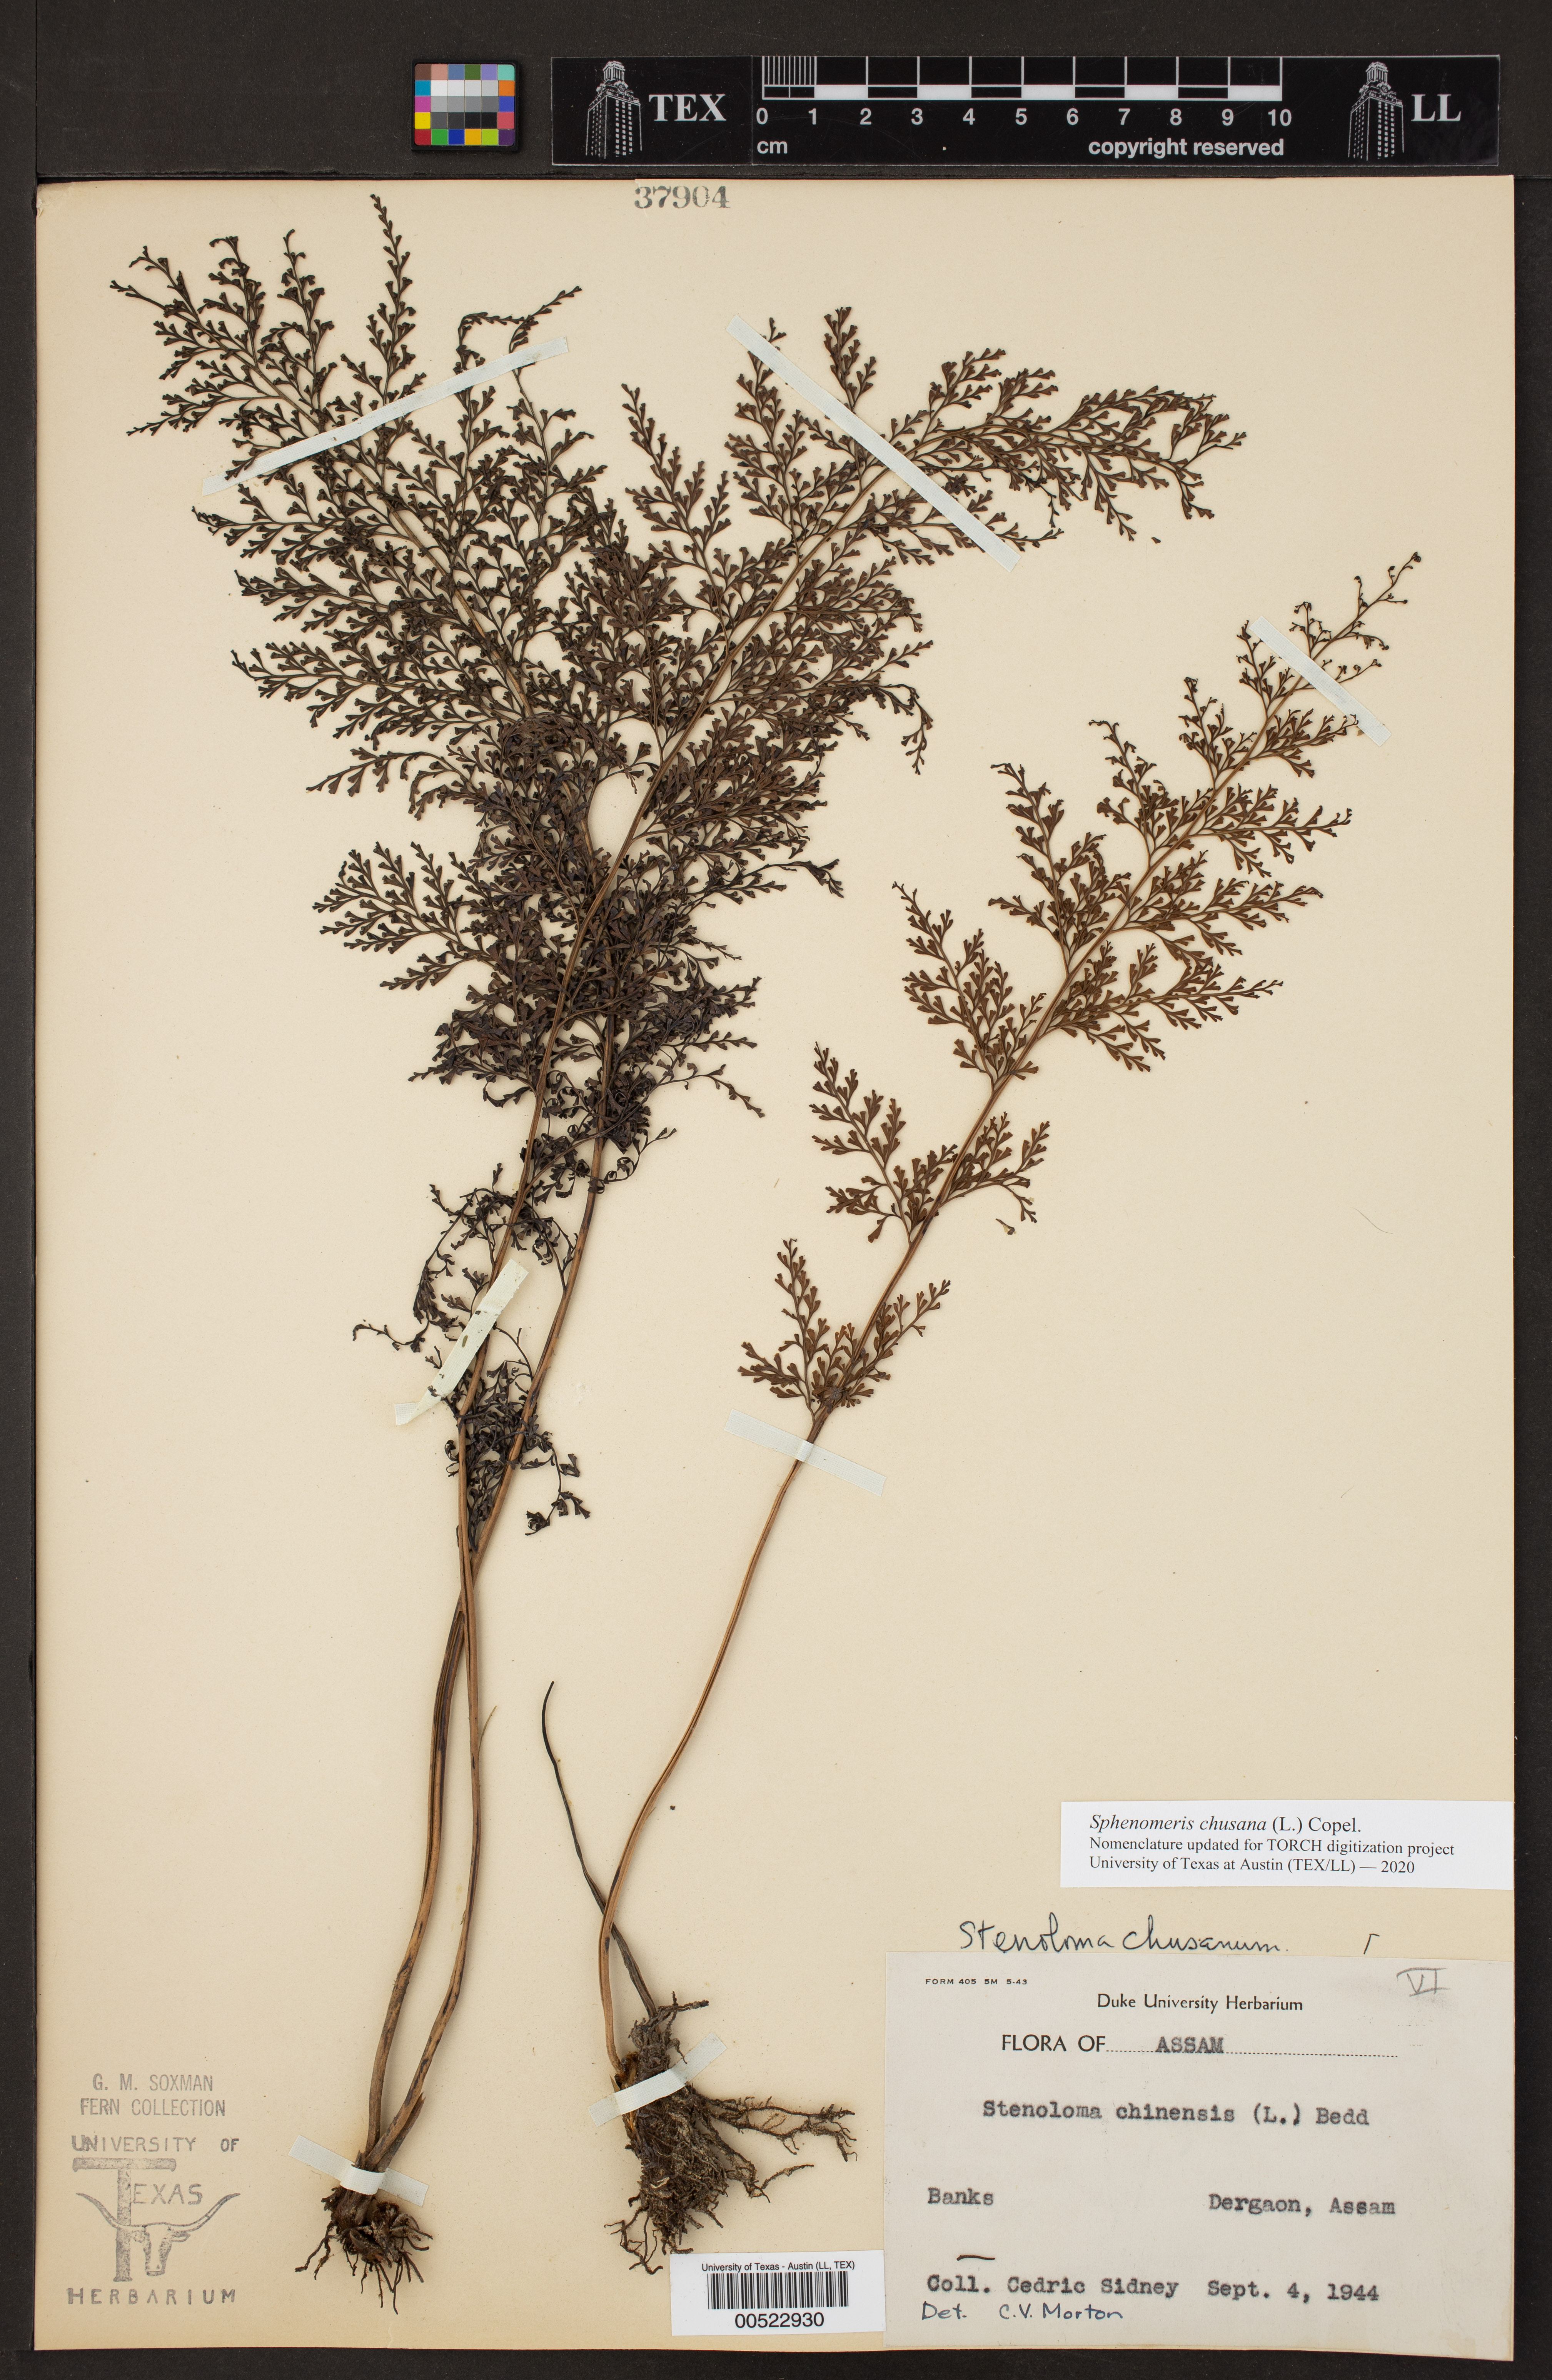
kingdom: Plantae
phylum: Tracheophyta
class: Polypodiopsida
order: Polypodiales
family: Lindsaeaceae
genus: Sphenomeris
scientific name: Sphenomeris
